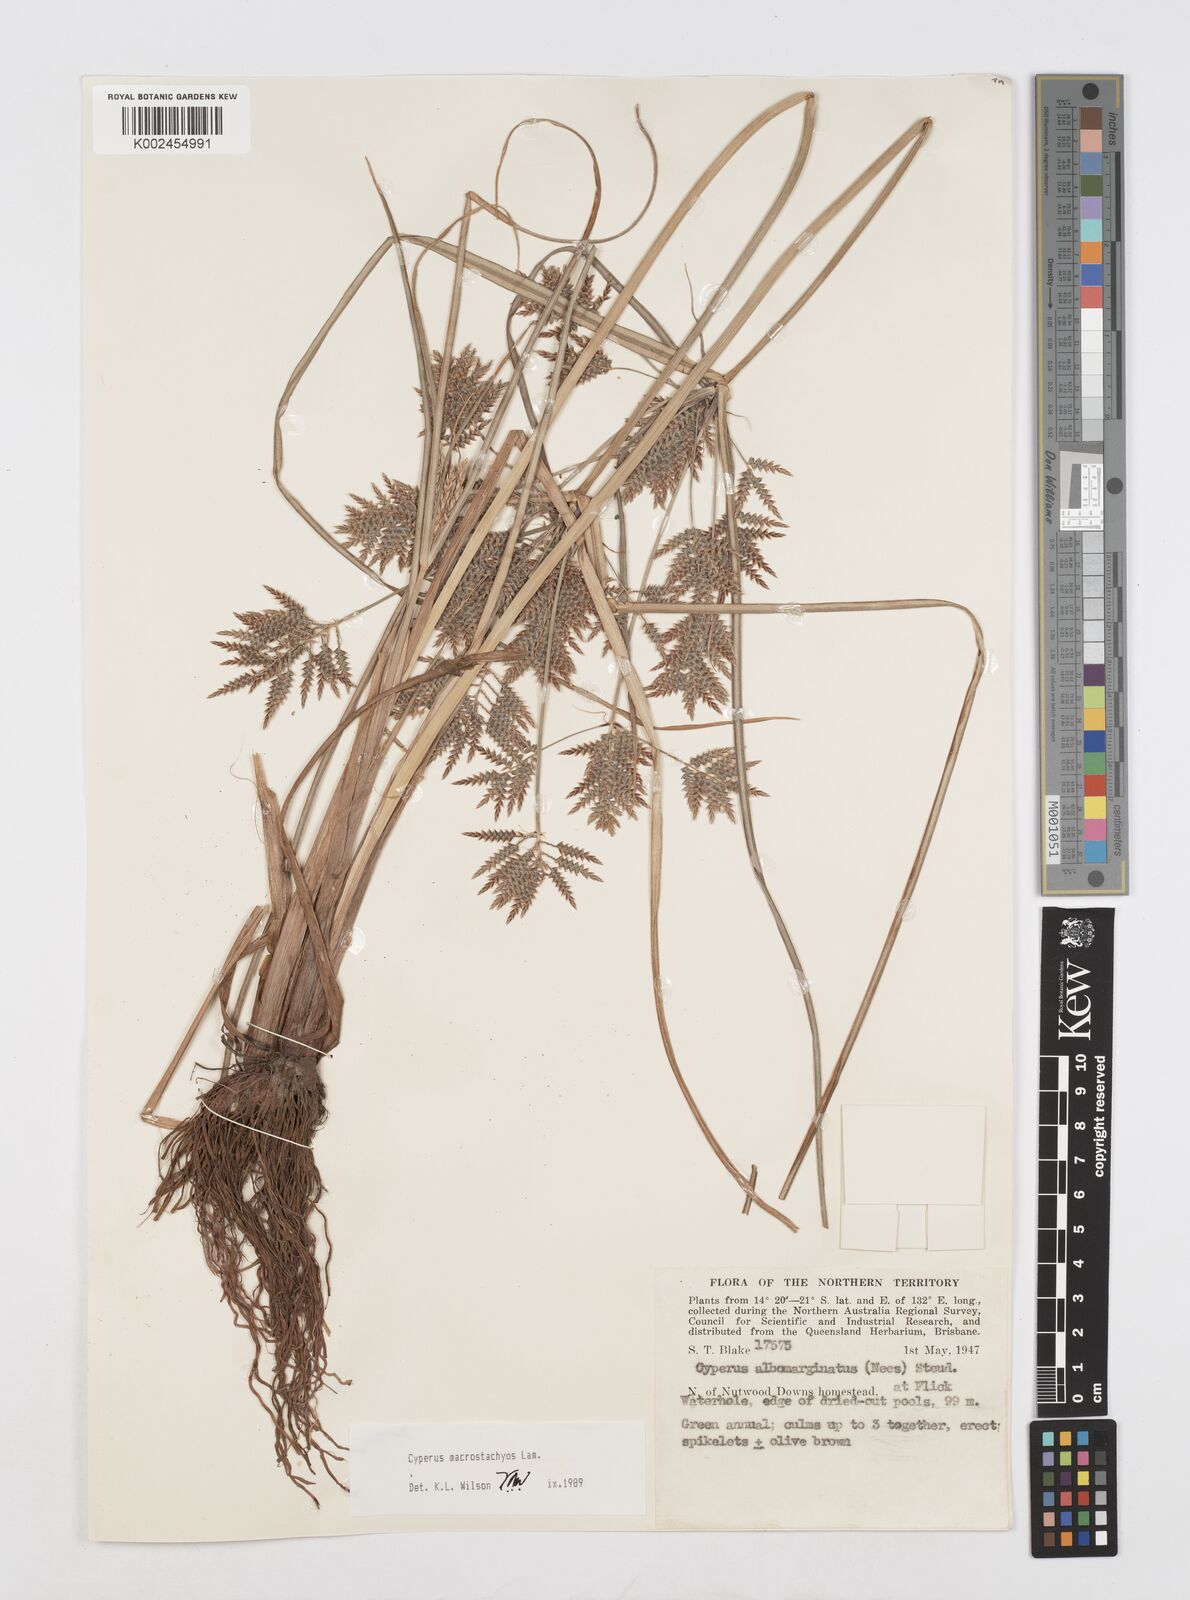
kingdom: Plantae
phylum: Tracheophyta
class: Liliopsida
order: Poales
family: Cyperaceae
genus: Cyperus
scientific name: Cyperus macrostachyos
